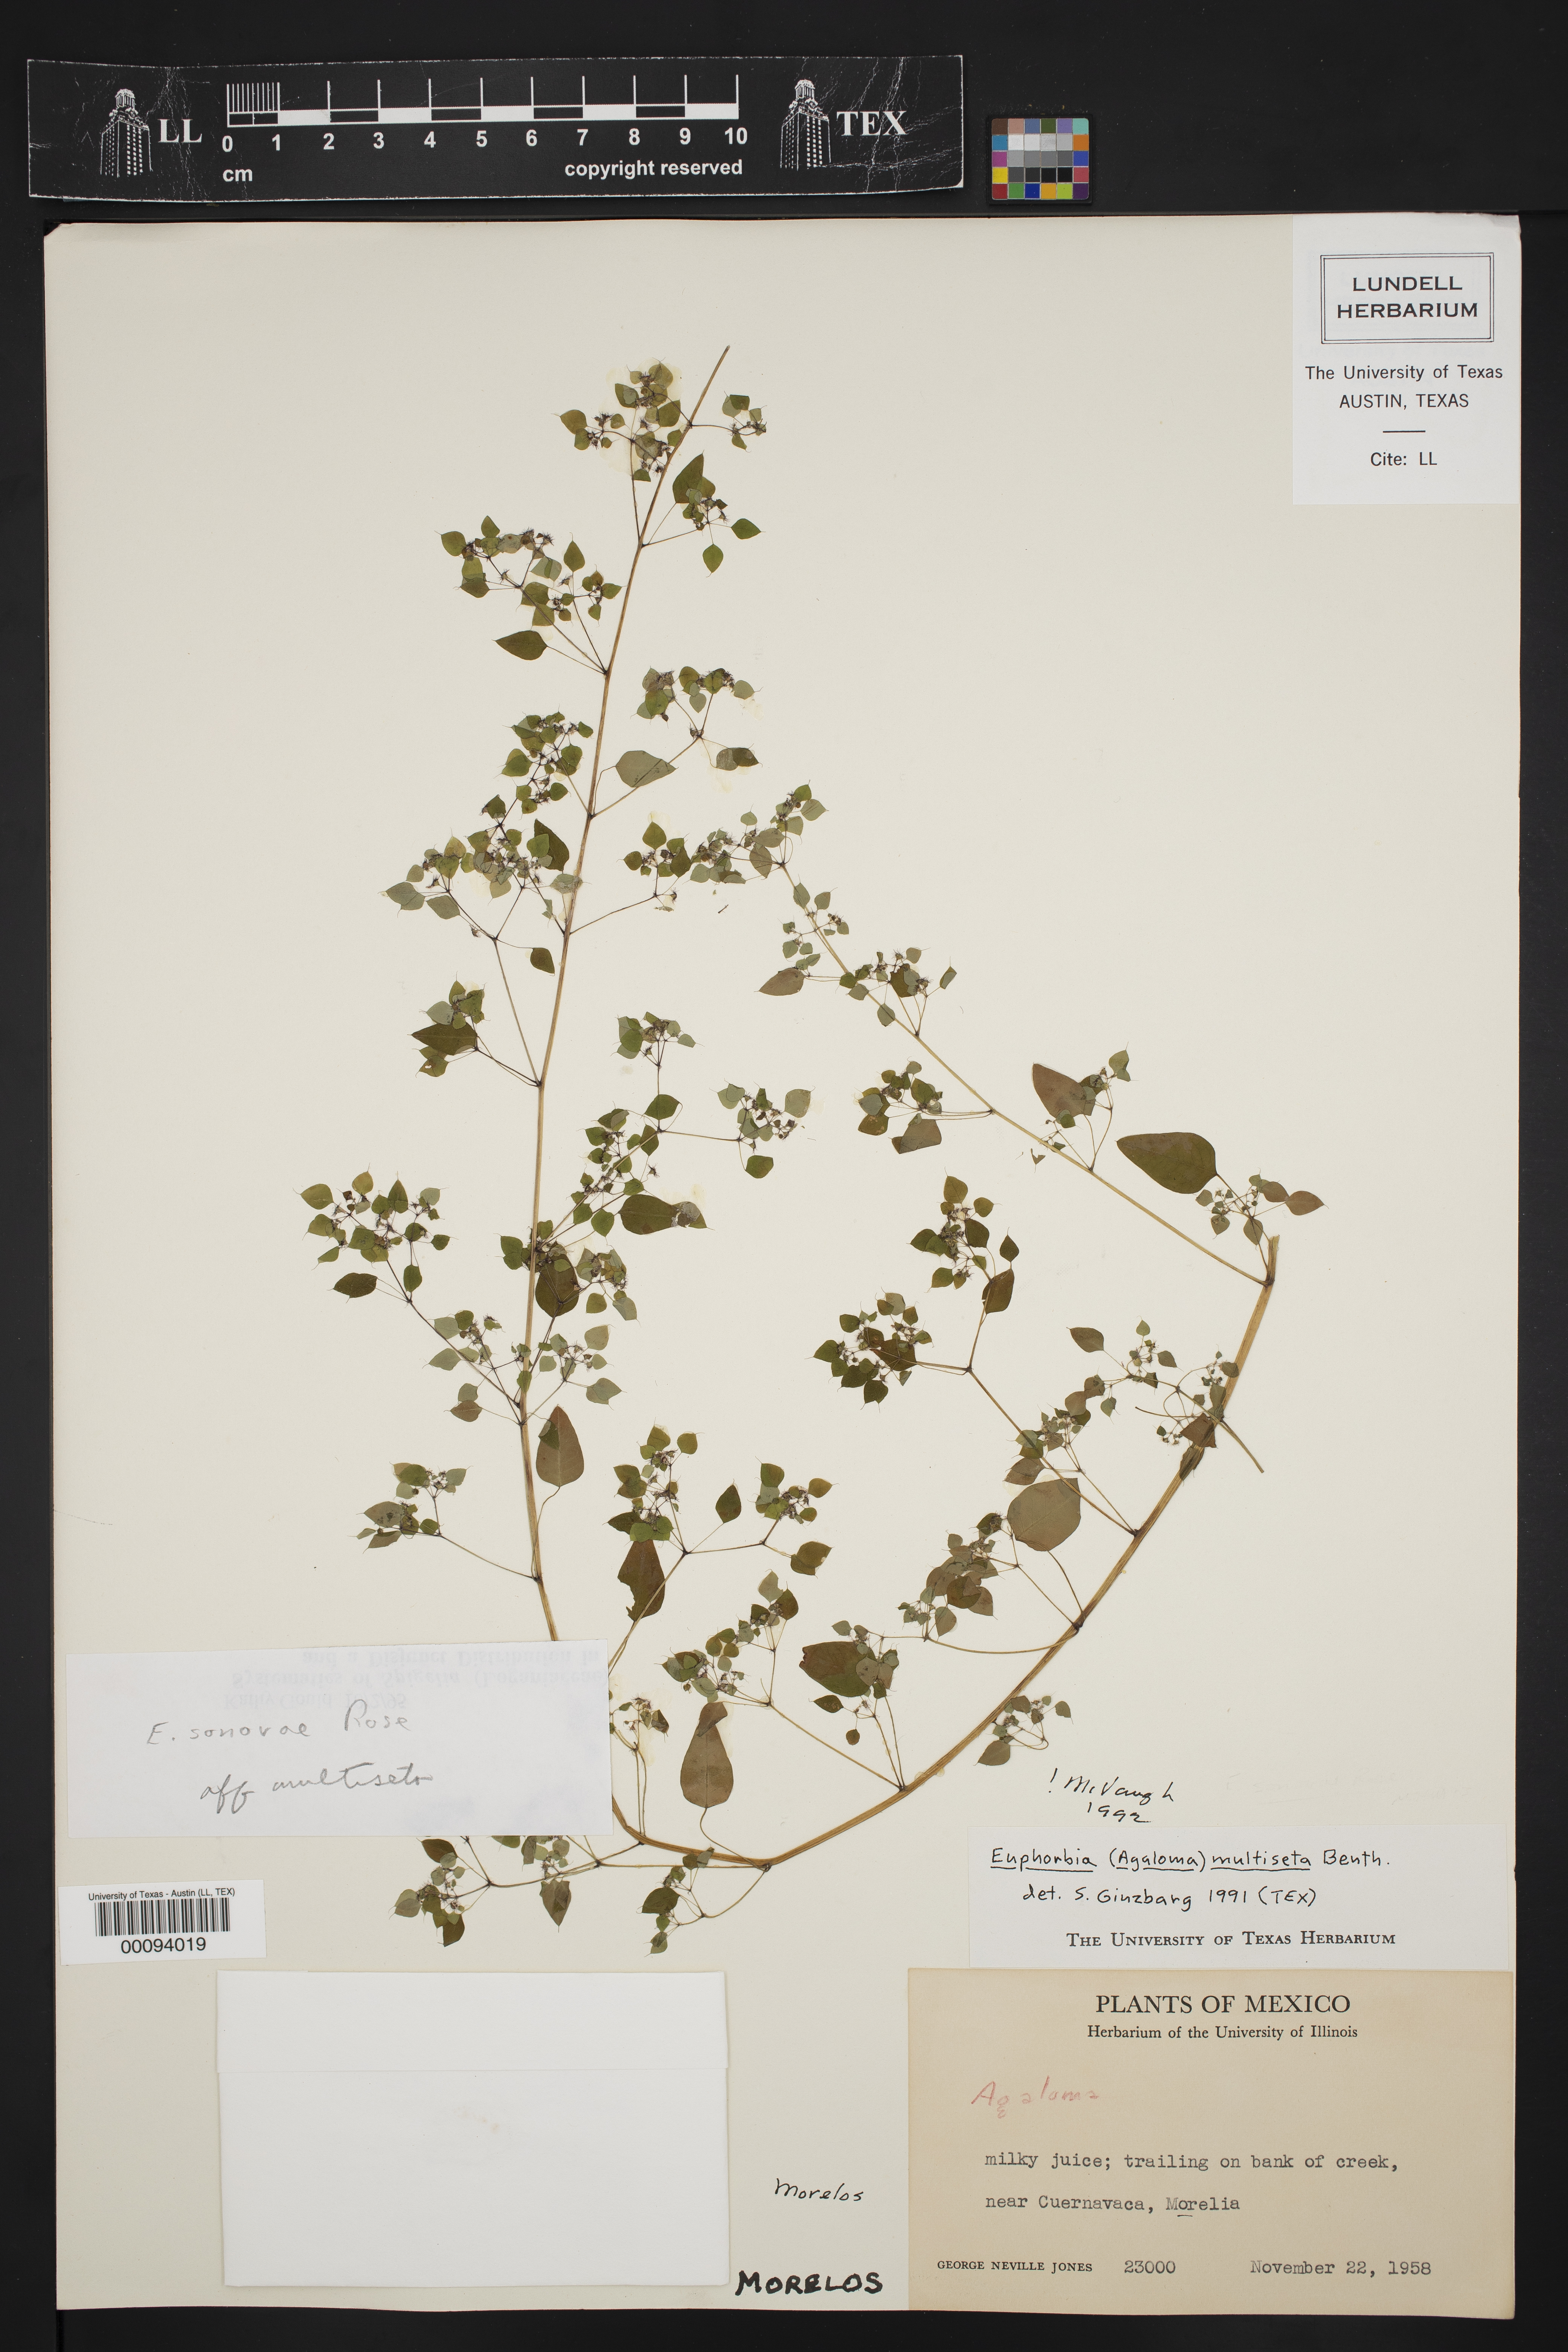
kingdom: Plantae
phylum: Tracheophyta
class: Magnoliopsida
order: Malpighiales
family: Euphorbiaceae
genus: Euphorbia
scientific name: Euphorbia adiantoides
